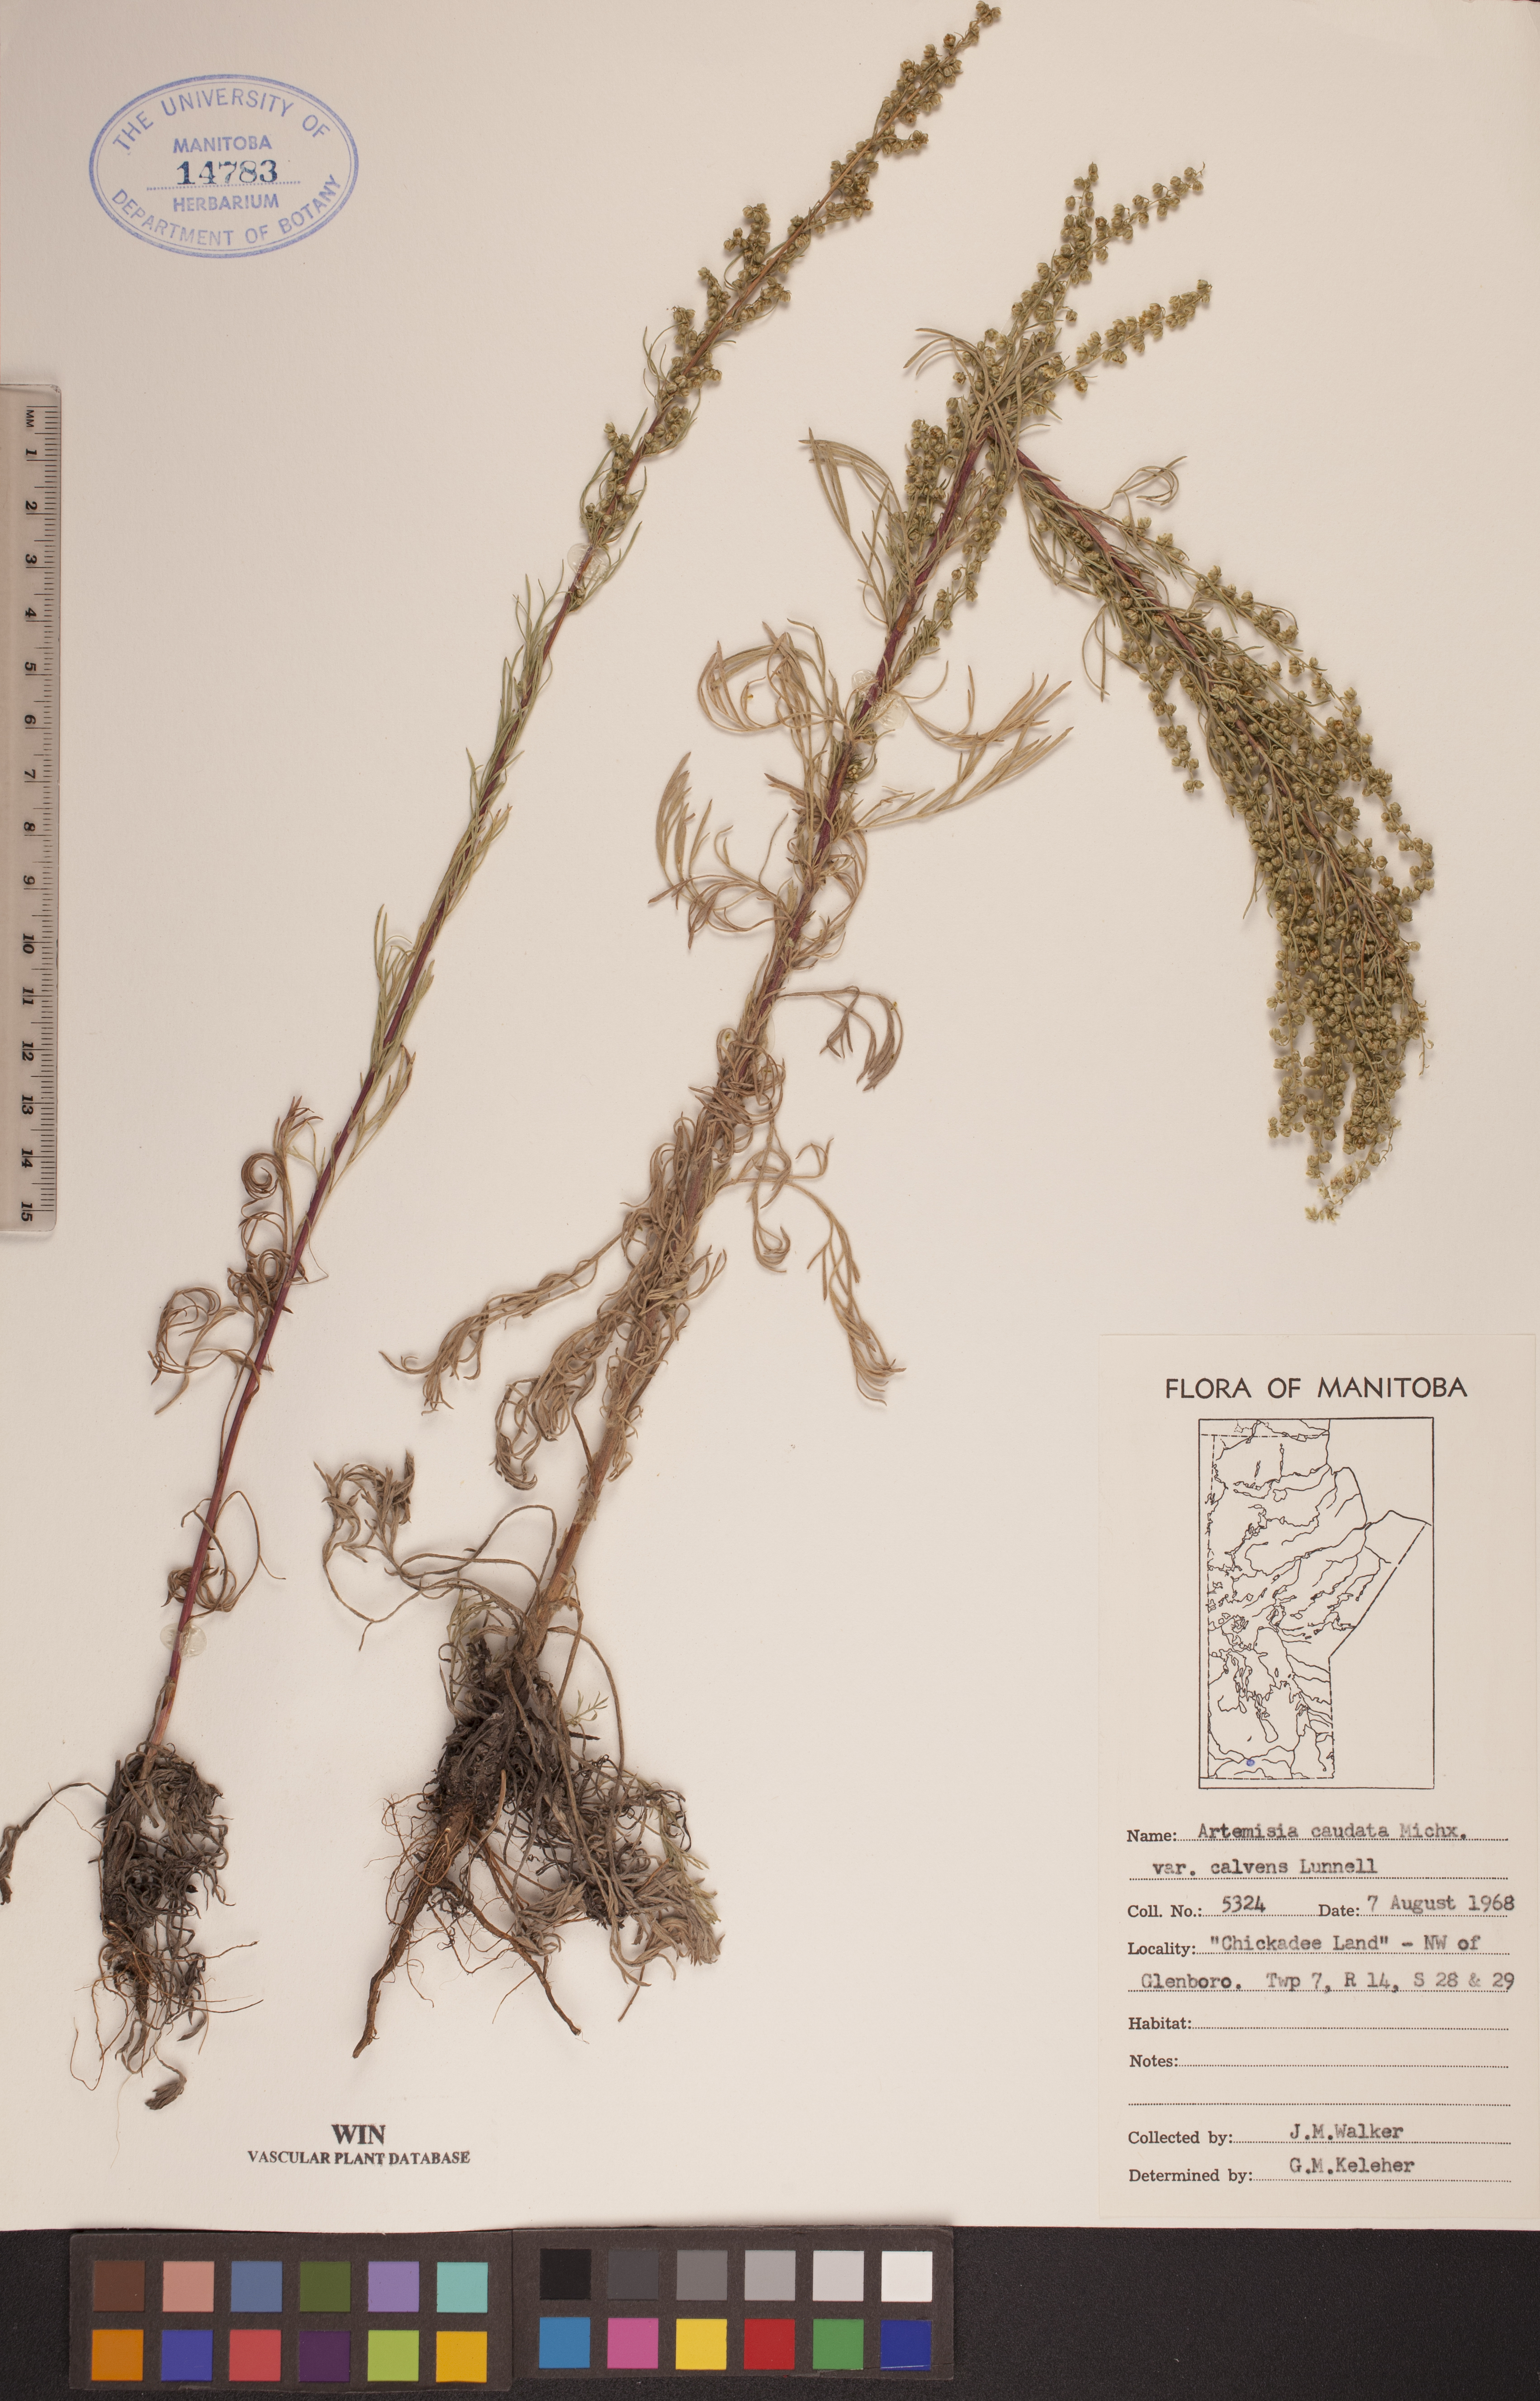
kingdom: Plantae
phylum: Tracheophyta
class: Magnoliopsida
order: Asterales
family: Asteraceae
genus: Artemisia
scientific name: Artemisia campestris
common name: Field wormwood
